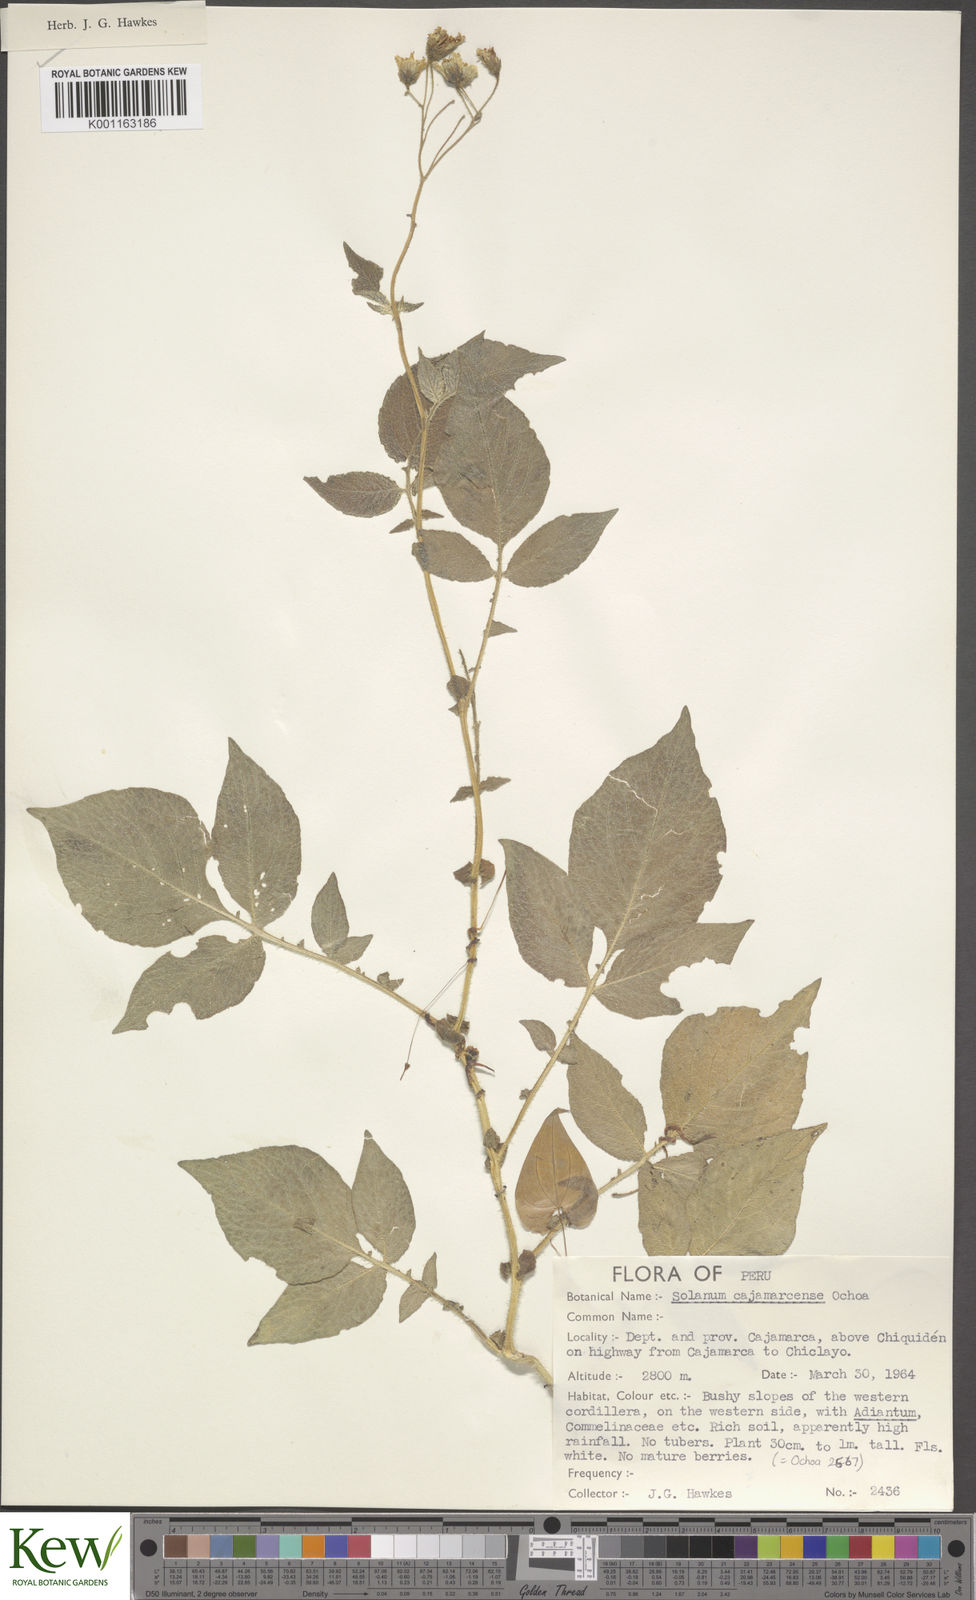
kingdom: Plantae
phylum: Tracheophyta
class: Magnoliopsida
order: Solanales
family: Solanaceae
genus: Solanum
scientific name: Solanum cajamarquense
